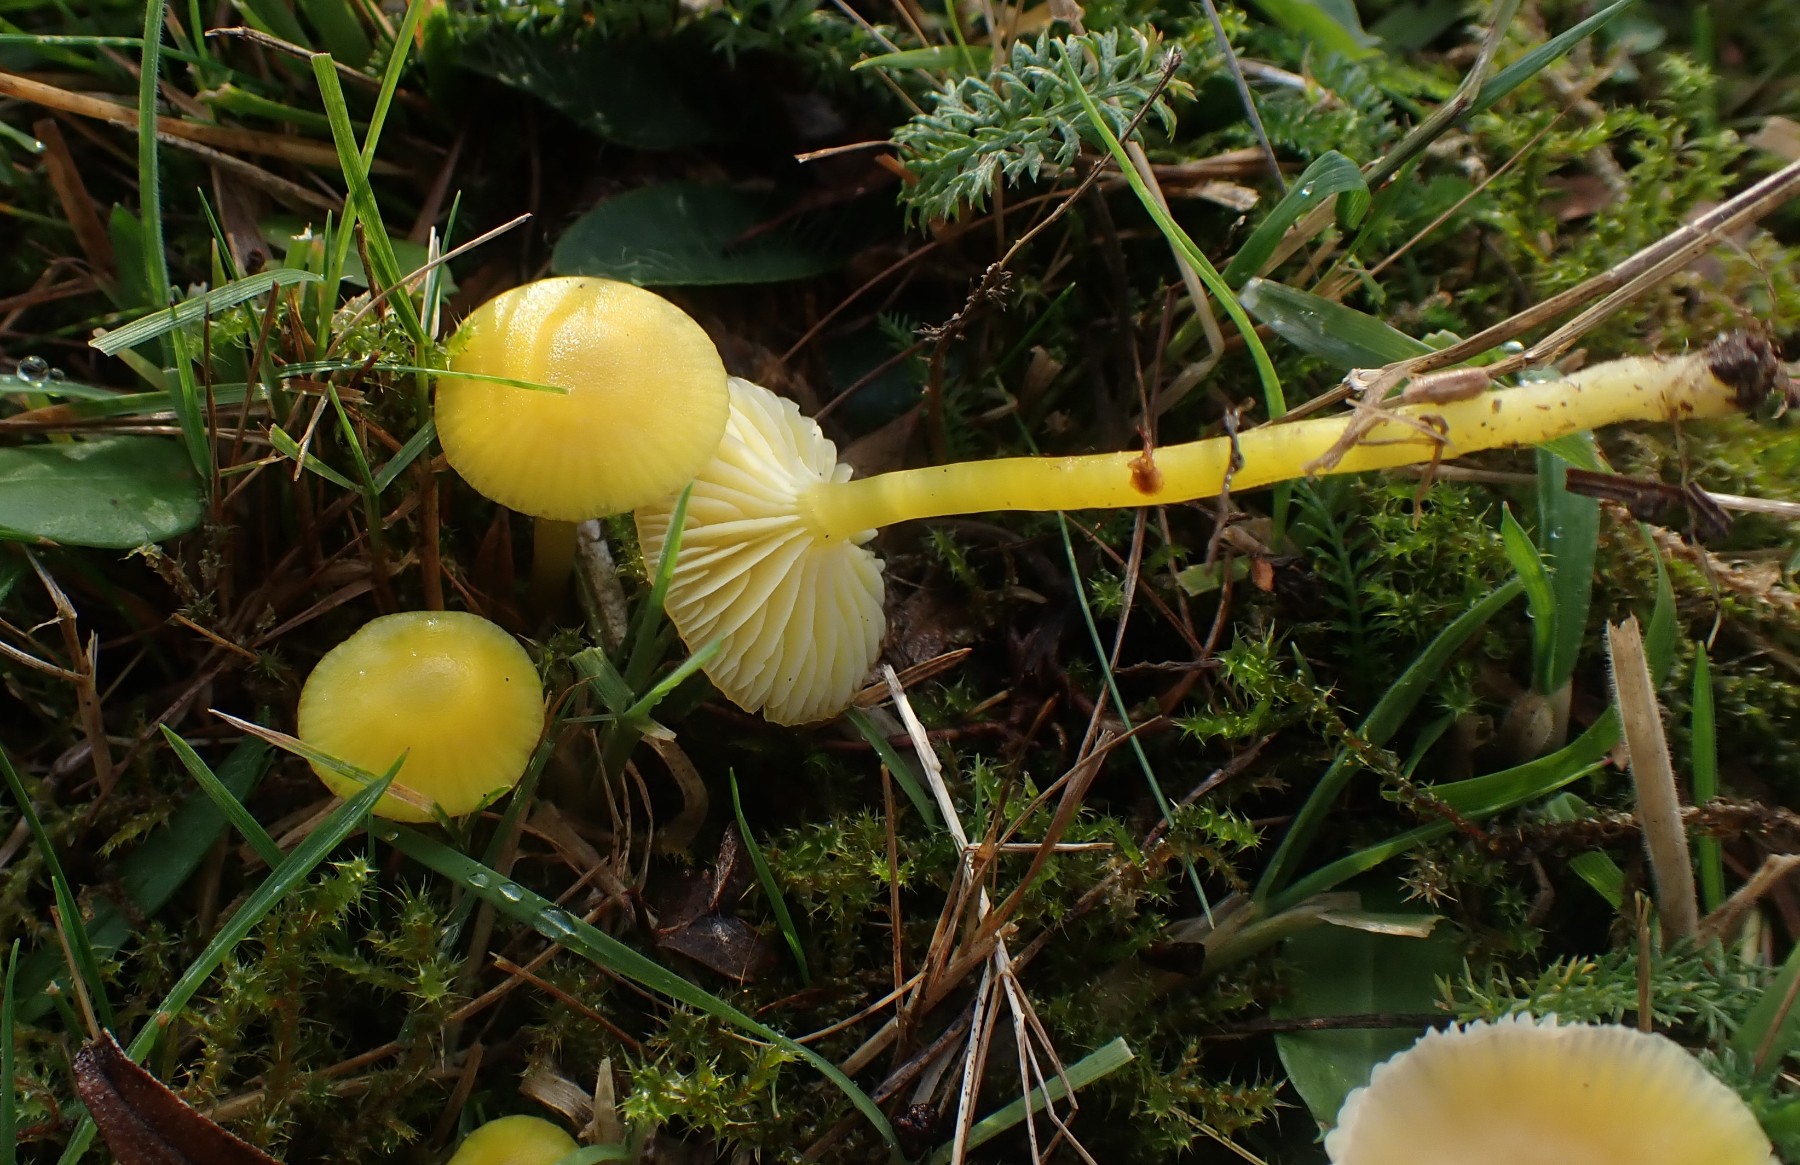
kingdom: Fungi
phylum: Basidiomycota
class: Agaricomycetes
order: Agaricales
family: Hygrophoraceae
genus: Hygrocybe
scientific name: Hygrocybe ceracea
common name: voksgul vokshat
